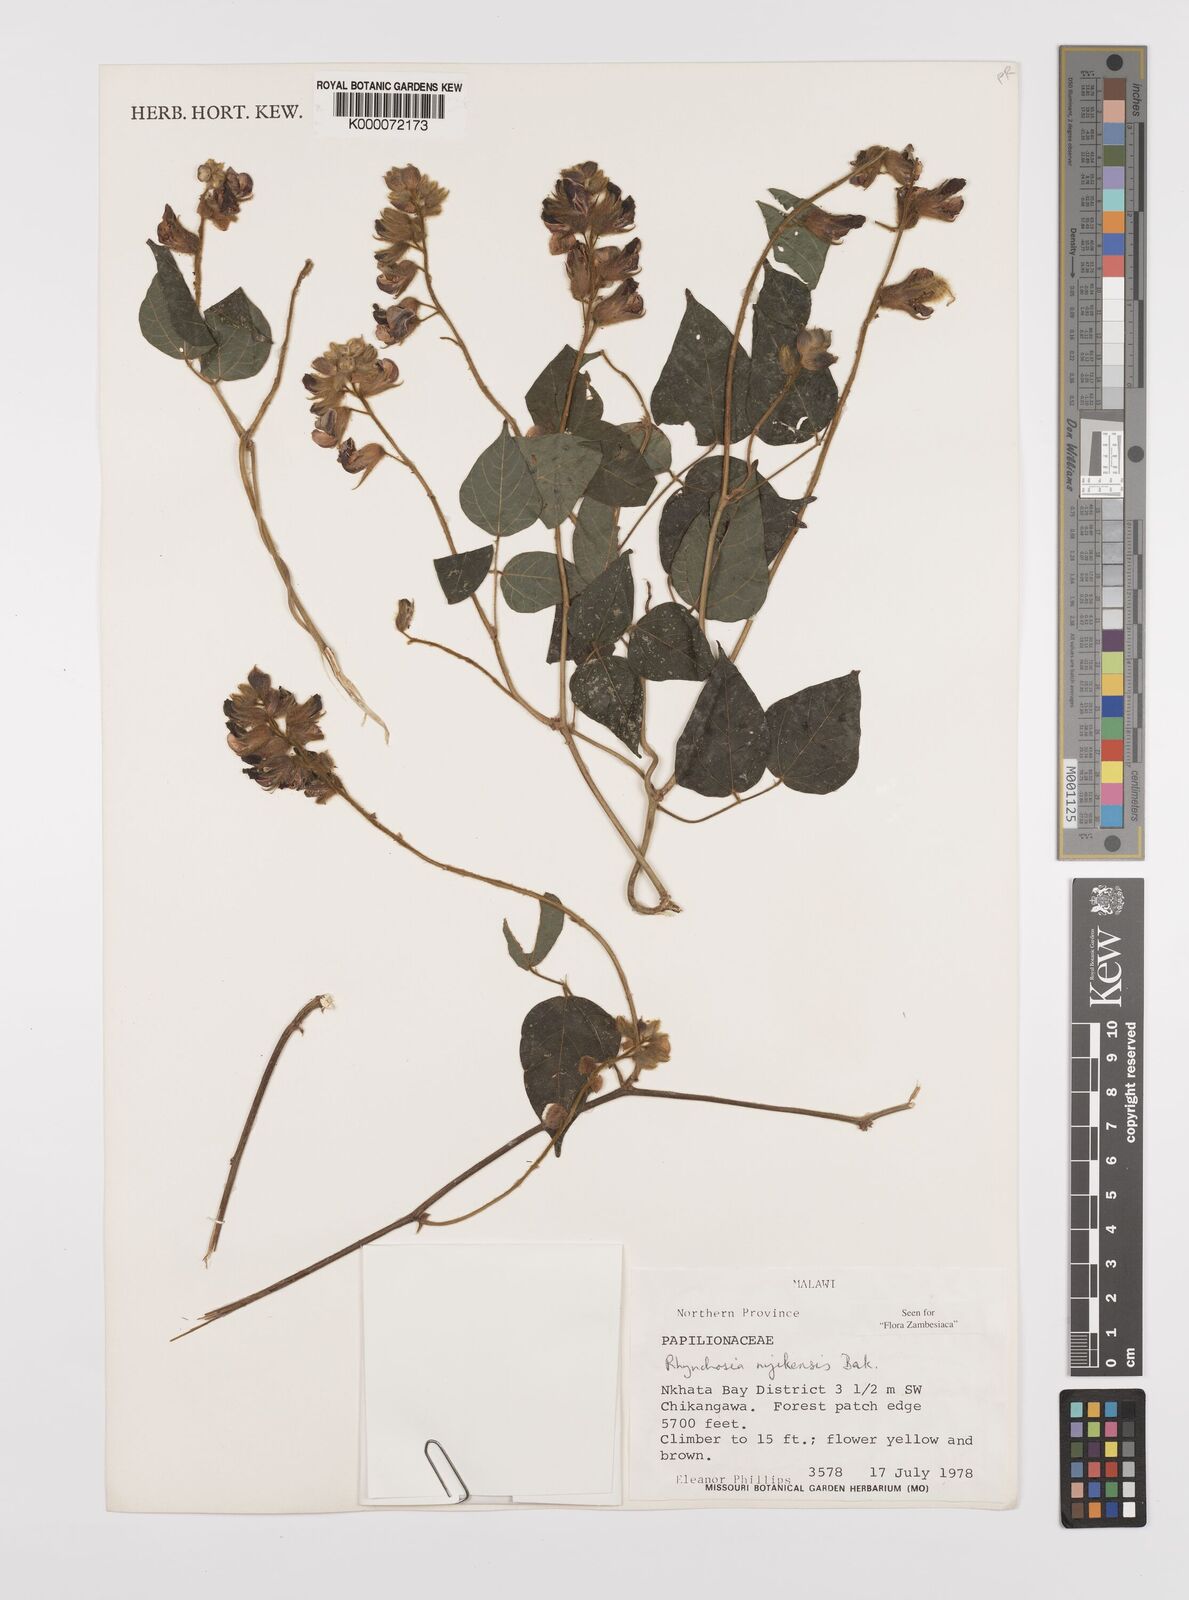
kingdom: Plantae
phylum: Tracheophyta
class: Magnoliopsida
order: Fabales
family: Fabaceae
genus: Rhynchosia
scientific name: Rhynchosia nyikensis
